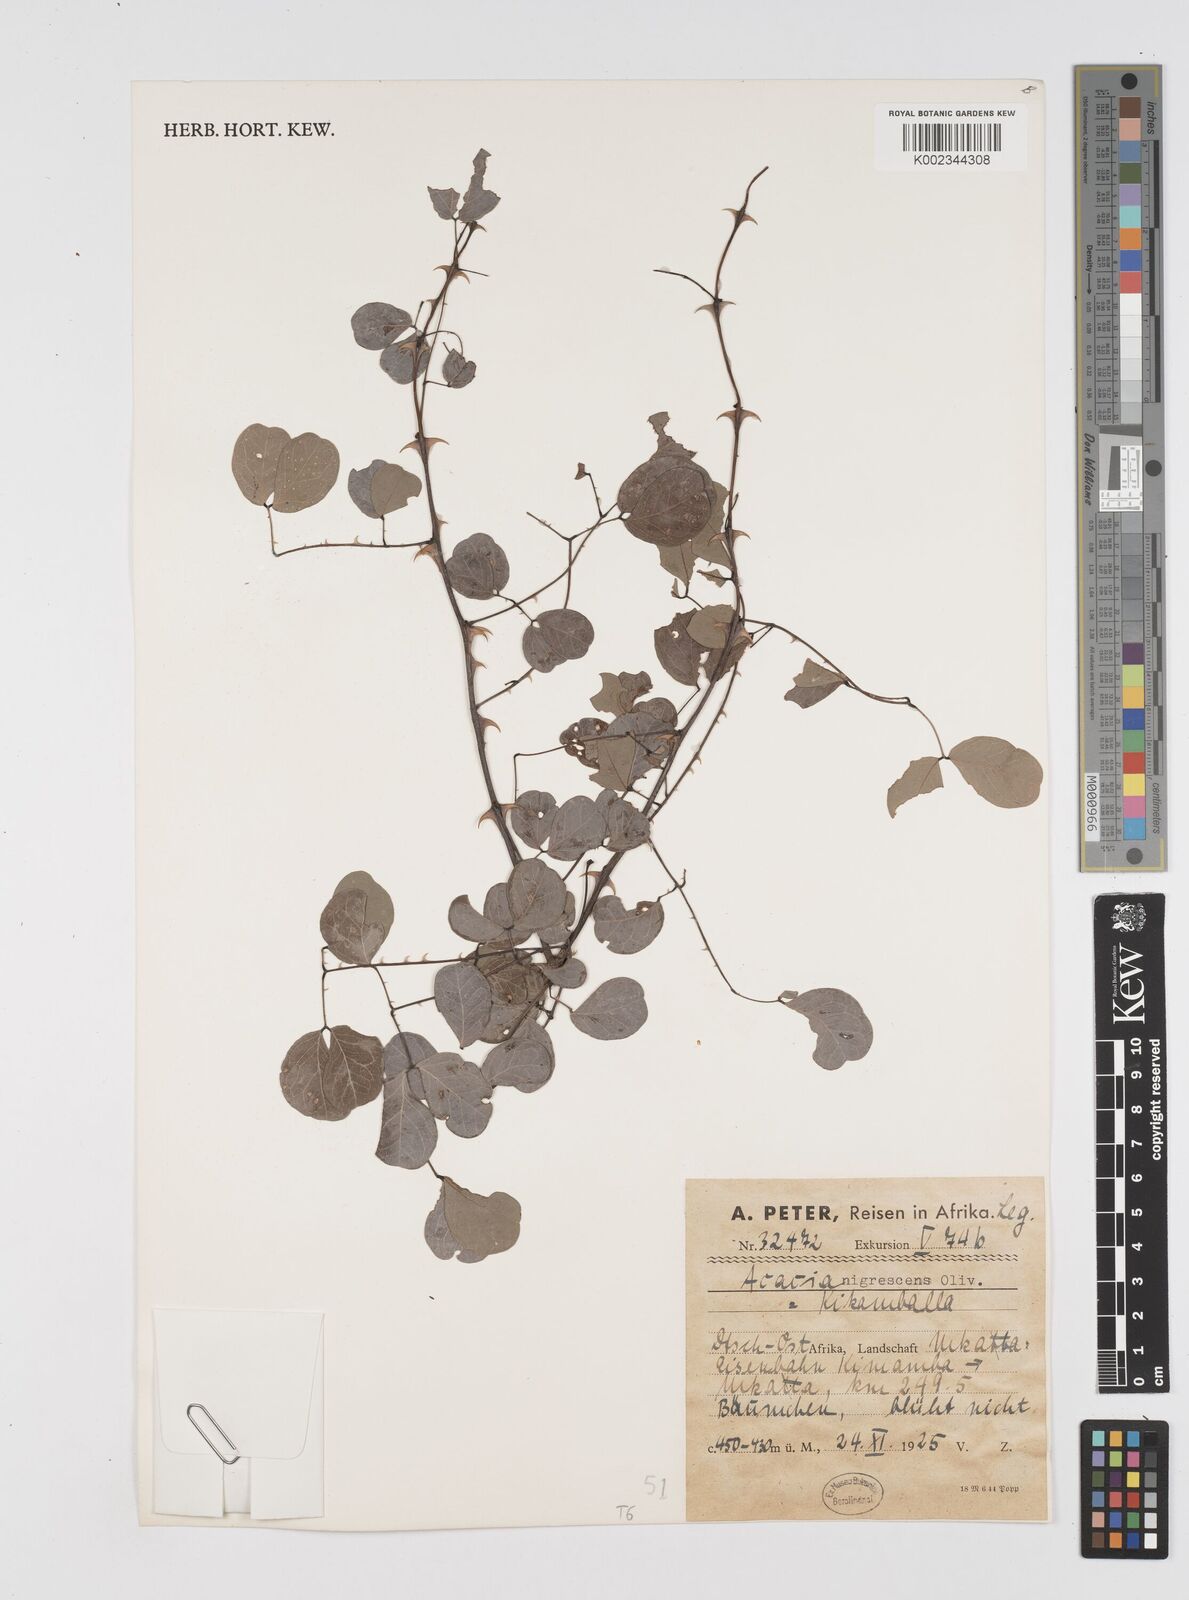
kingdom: Plantae
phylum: Tracheophyta
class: Magnoliopsida
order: Fabales
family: Fabaceae
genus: Senegalia
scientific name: Senegalia nigrescens
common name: Knobthorn
